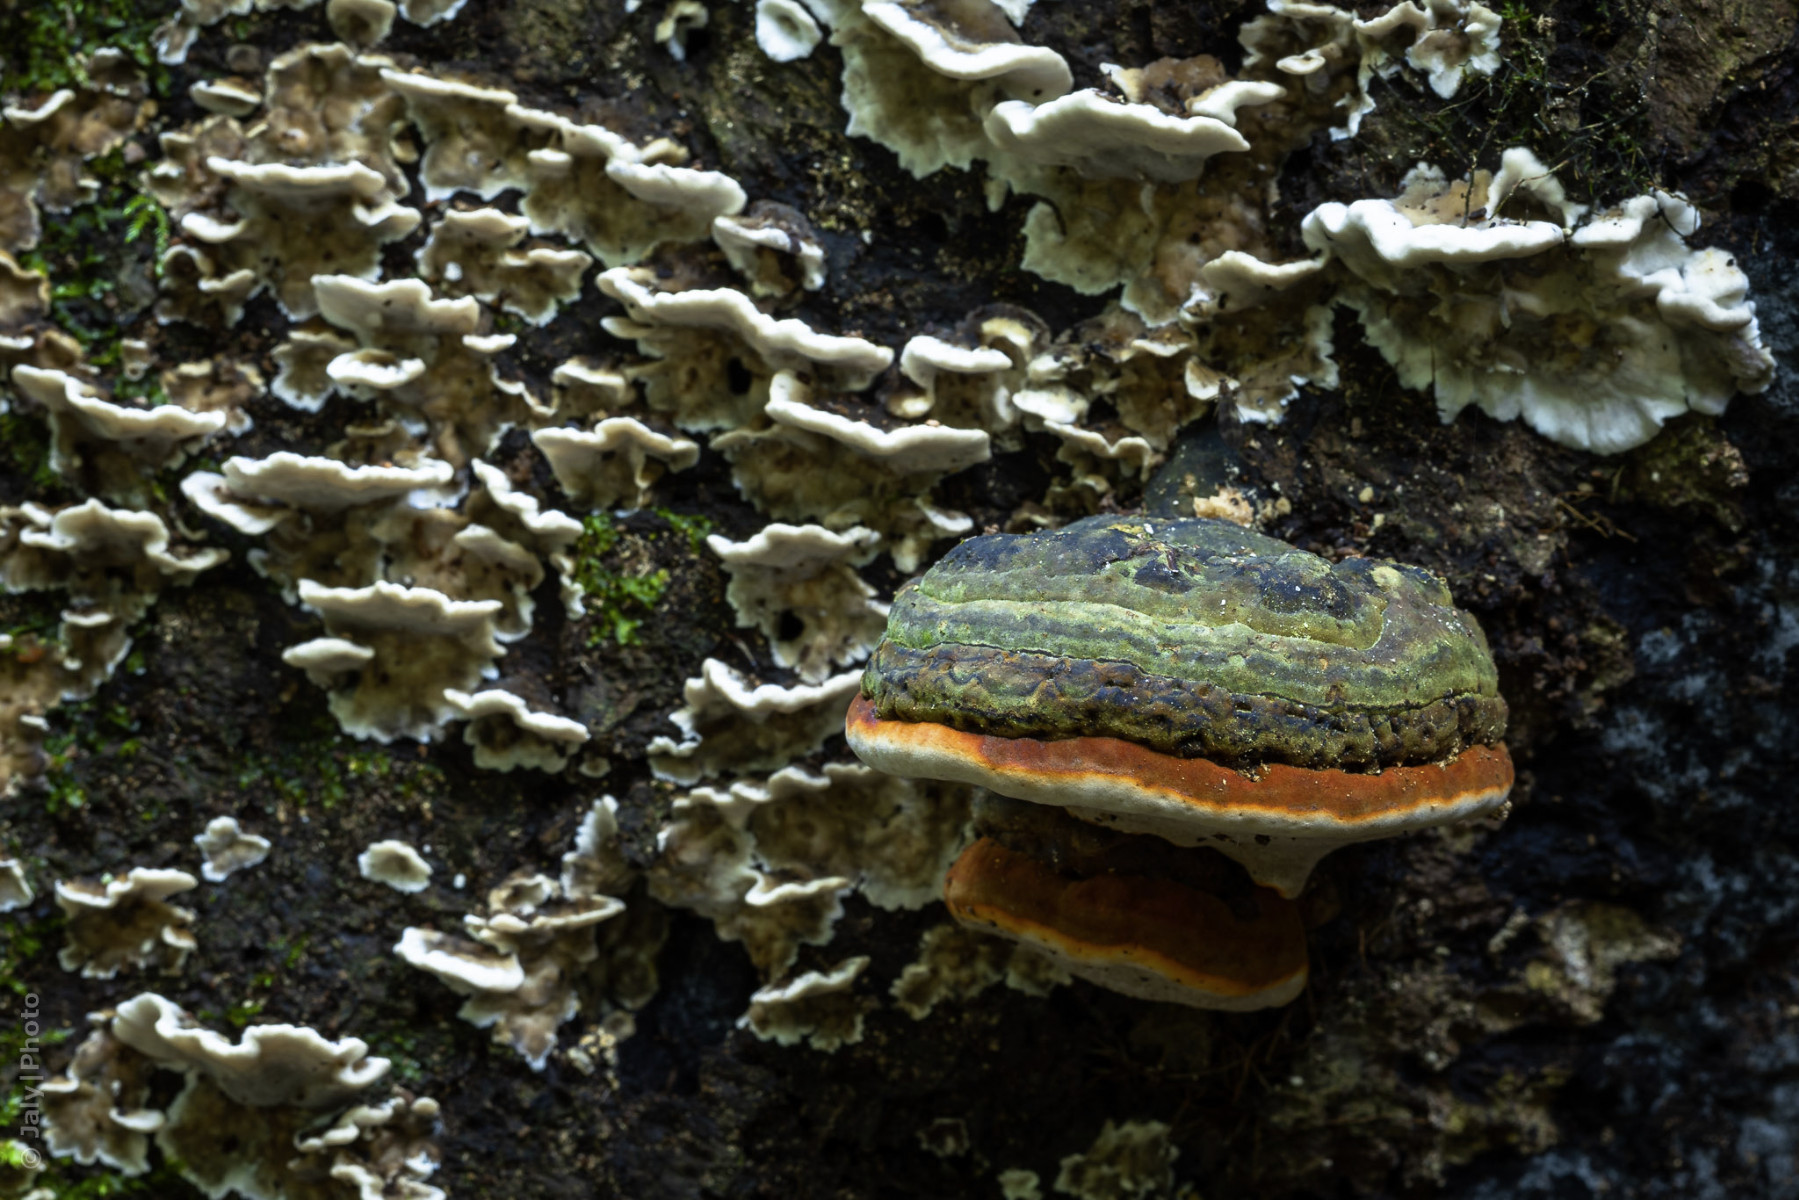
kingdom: Fungi
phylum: Basidiomycota
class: Agaricomycetes
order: Polyporales
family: Fomitopsidaceae
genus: Fomitopsis
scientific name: Fomitopsis pinicola
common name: randbæltet hovporesvamp
